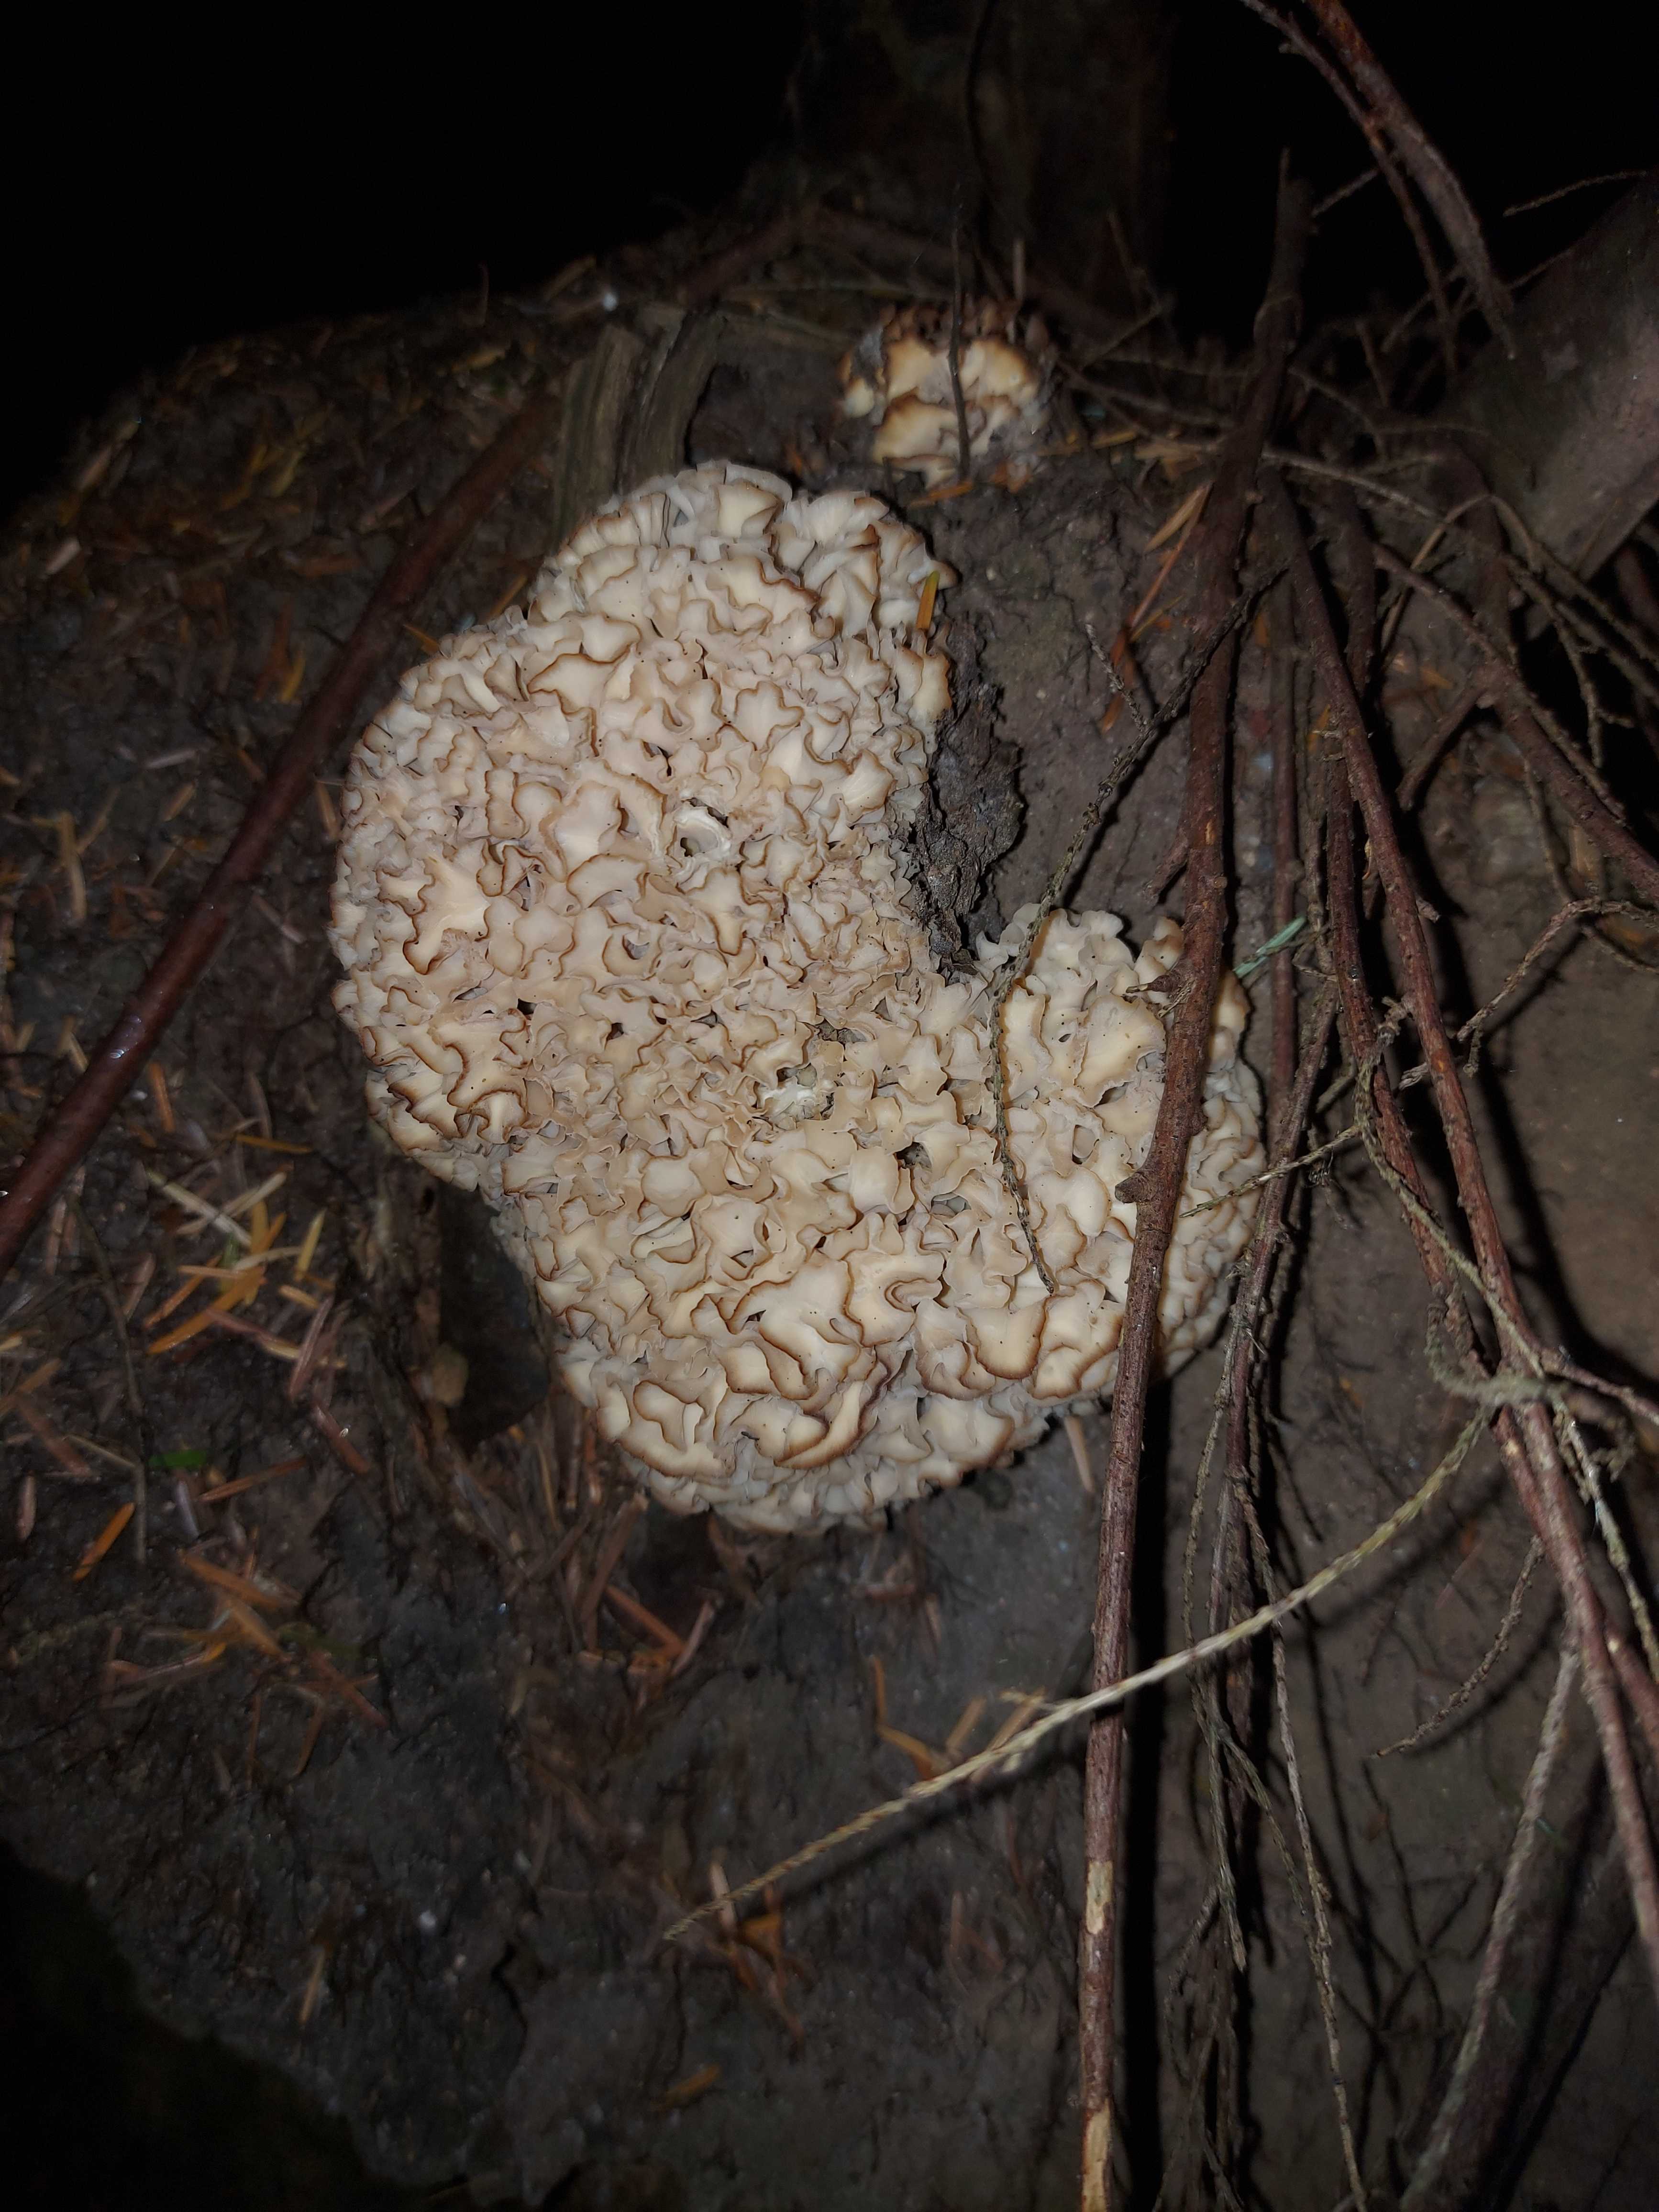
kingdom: Fungi
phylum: Basidiomycota
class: Agaricomycetes
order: Polyporales
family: Sparassidaceae
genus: Sparassis
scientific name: Sparassis crispa
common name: kruset blomkålssvamp
